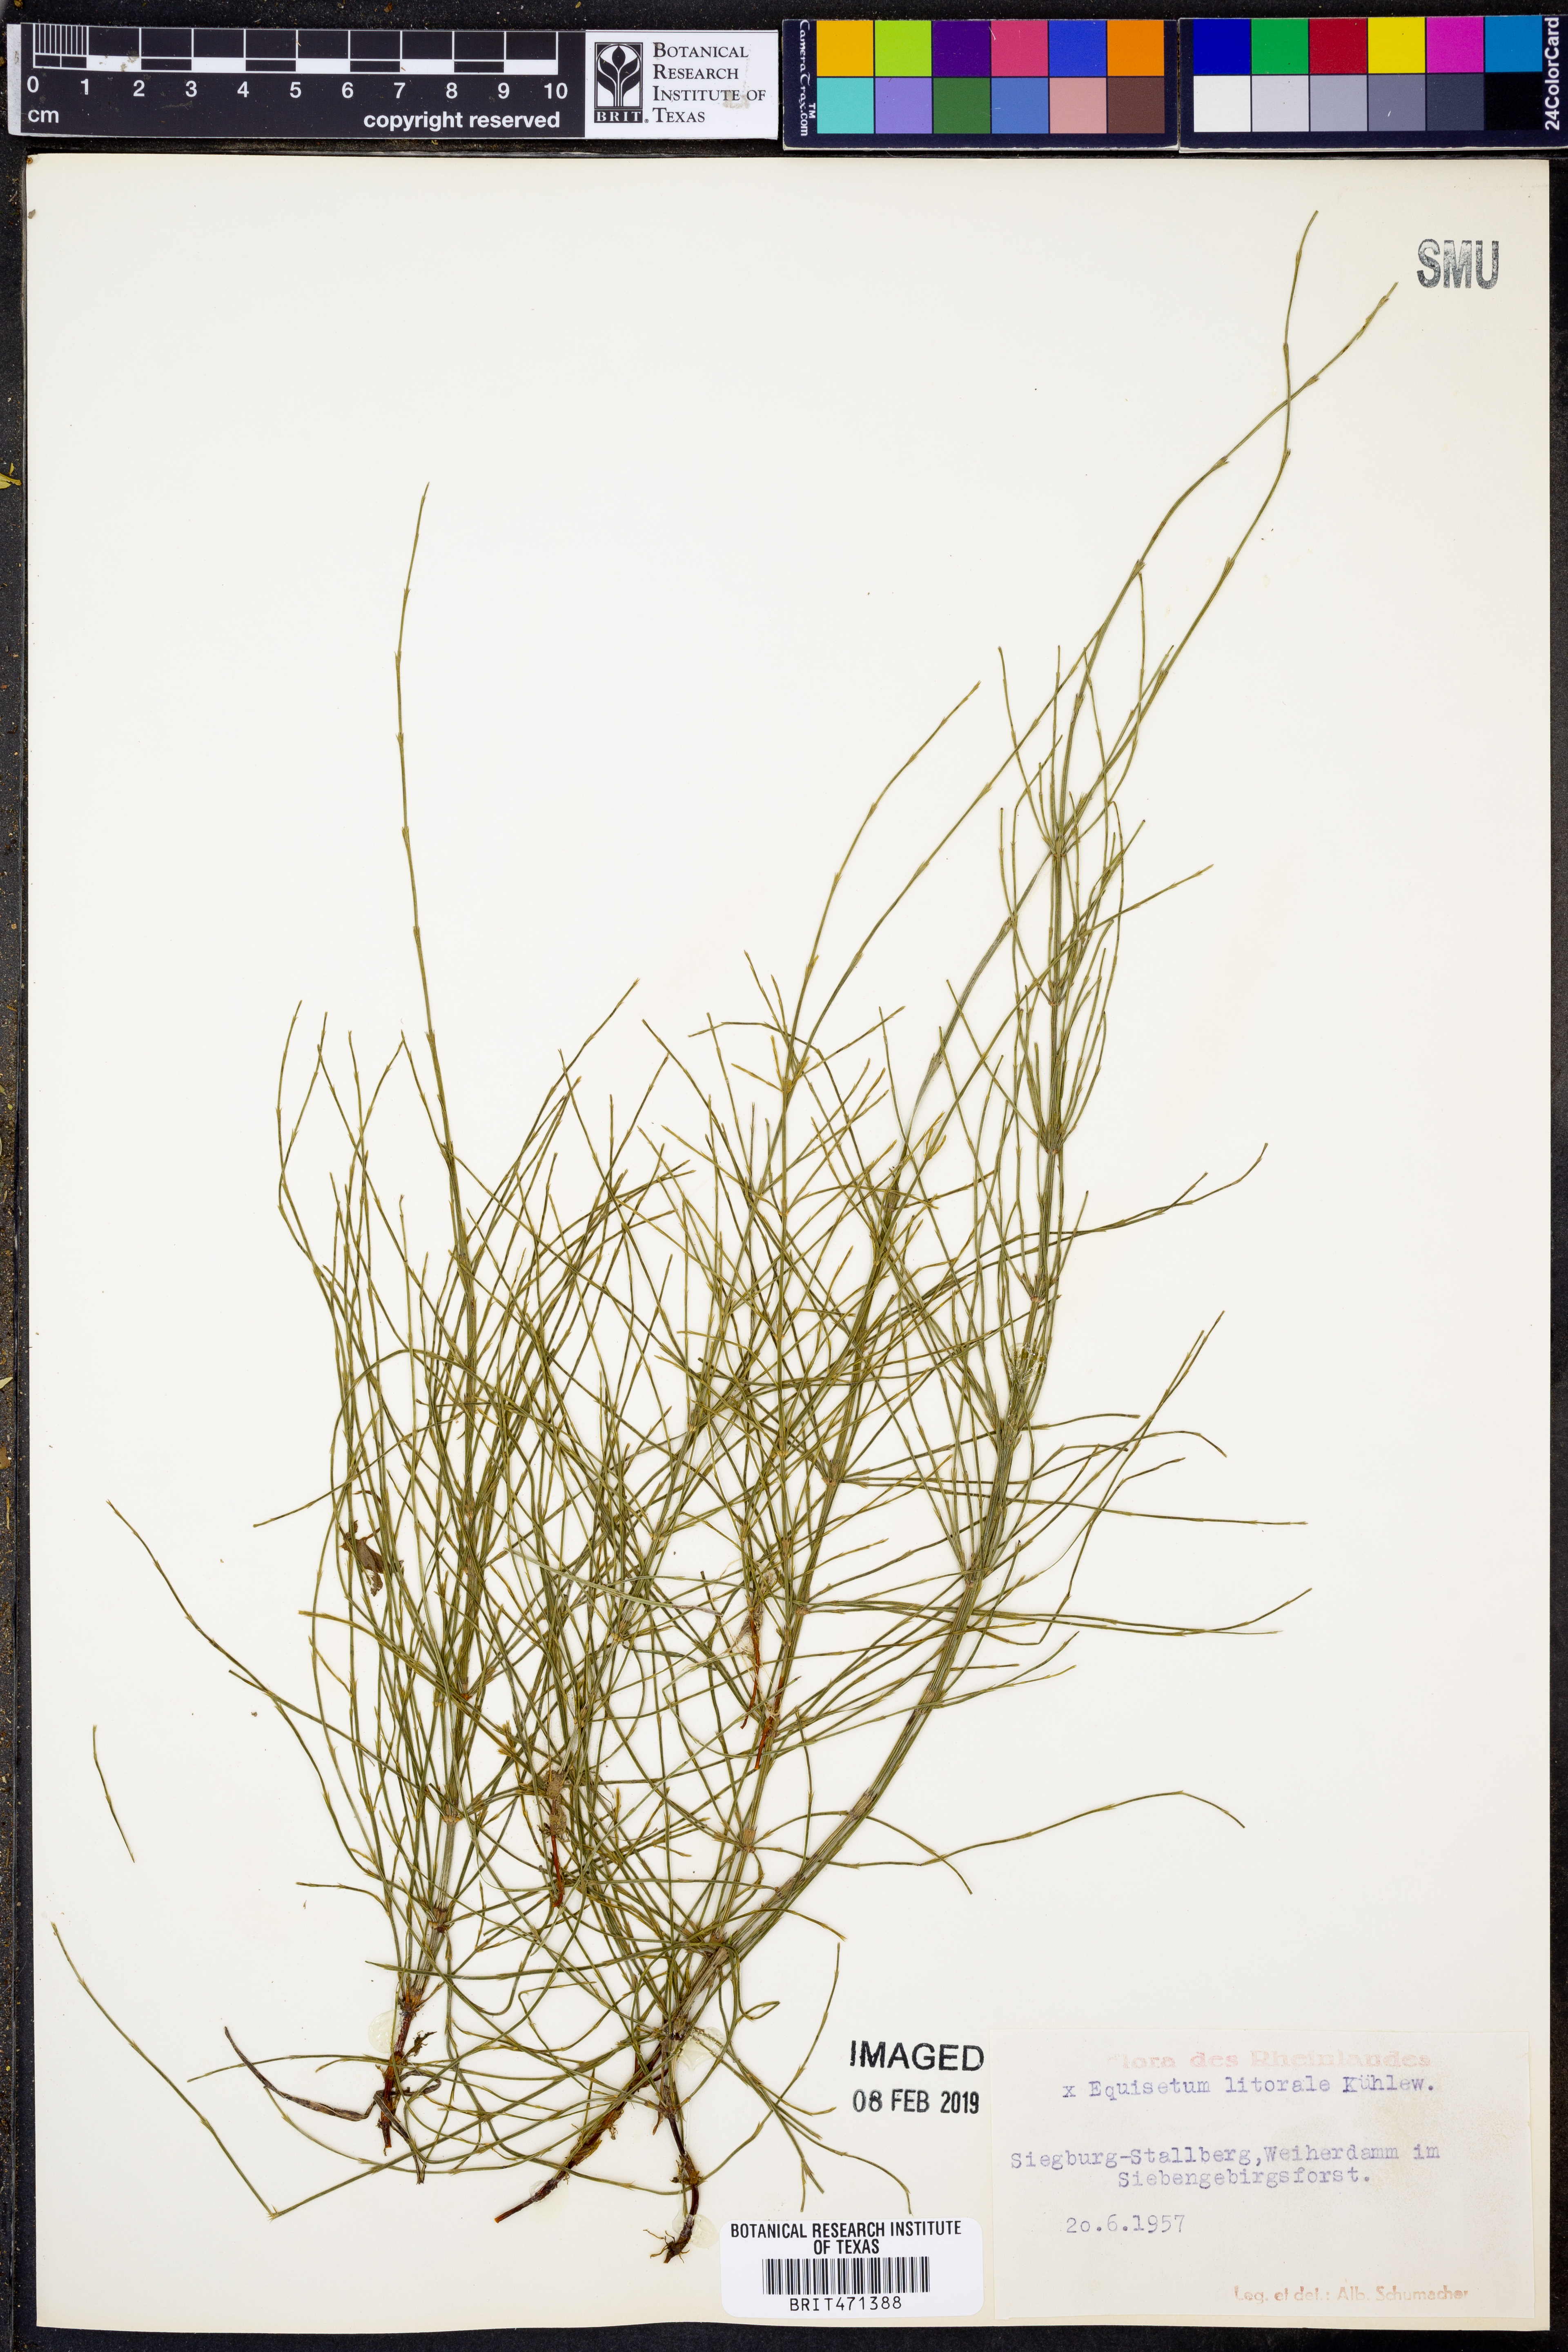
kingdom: Plantae
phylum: Tracheophyta
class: Polypodiopsida
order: Equisetales
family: Equisetaceae
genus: Equisetum
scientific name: Equisetum litorale
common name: Littoral horsetail
